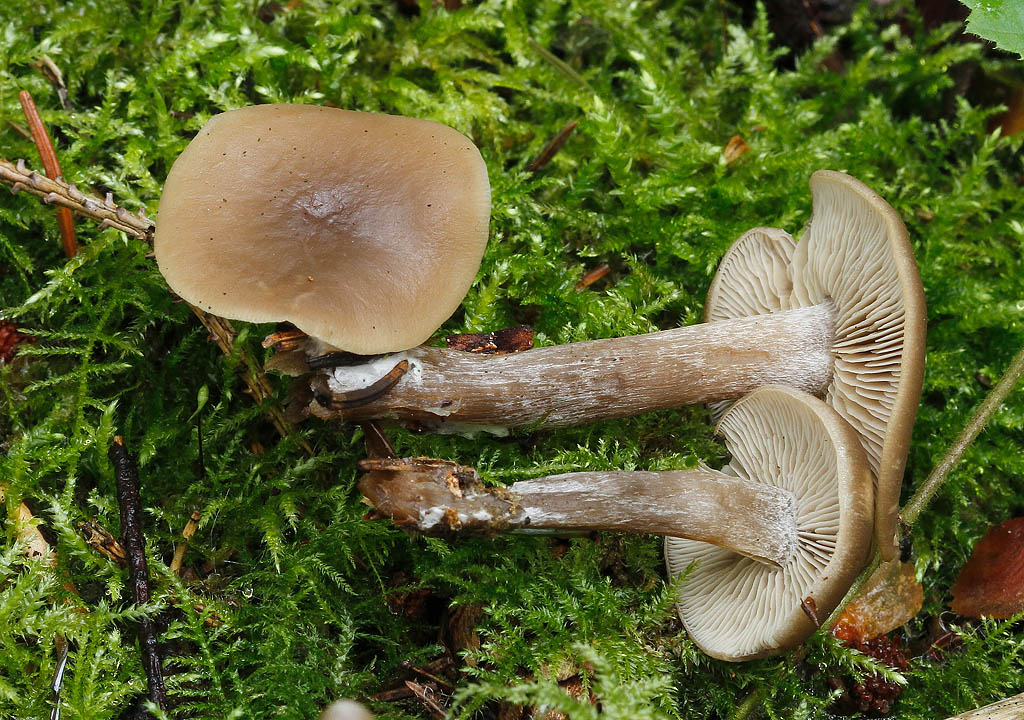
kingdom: Fungi
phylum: Basidiomycota
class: Agaricomycetes
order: Agaricales
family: Lyophyllaceae
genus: Tephrocybe
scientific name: Tephrocybe confusa
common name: trist gråblad
